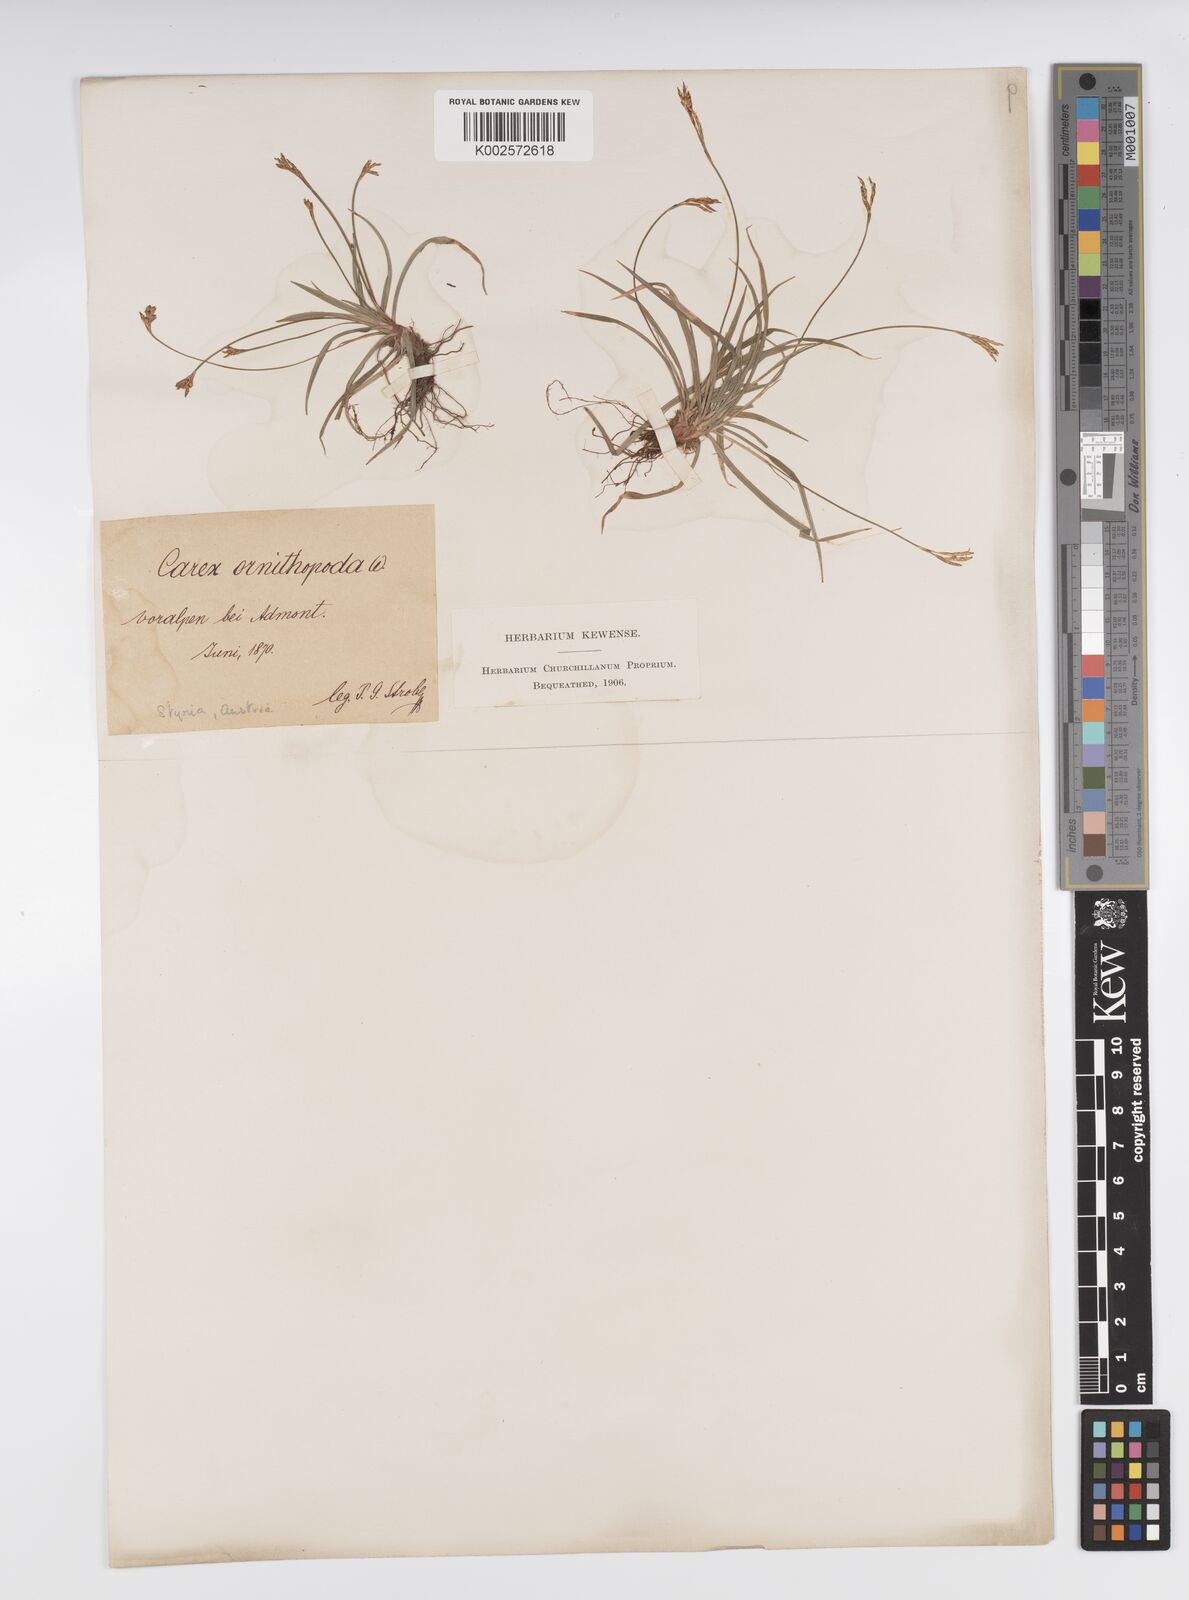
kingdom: Plantae
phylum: Tracheophyta
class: Liliopsida
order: Poales
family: Cyperaceae
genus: Carex
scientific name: Carex ornithopoda
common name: Bird's-foot sedge
